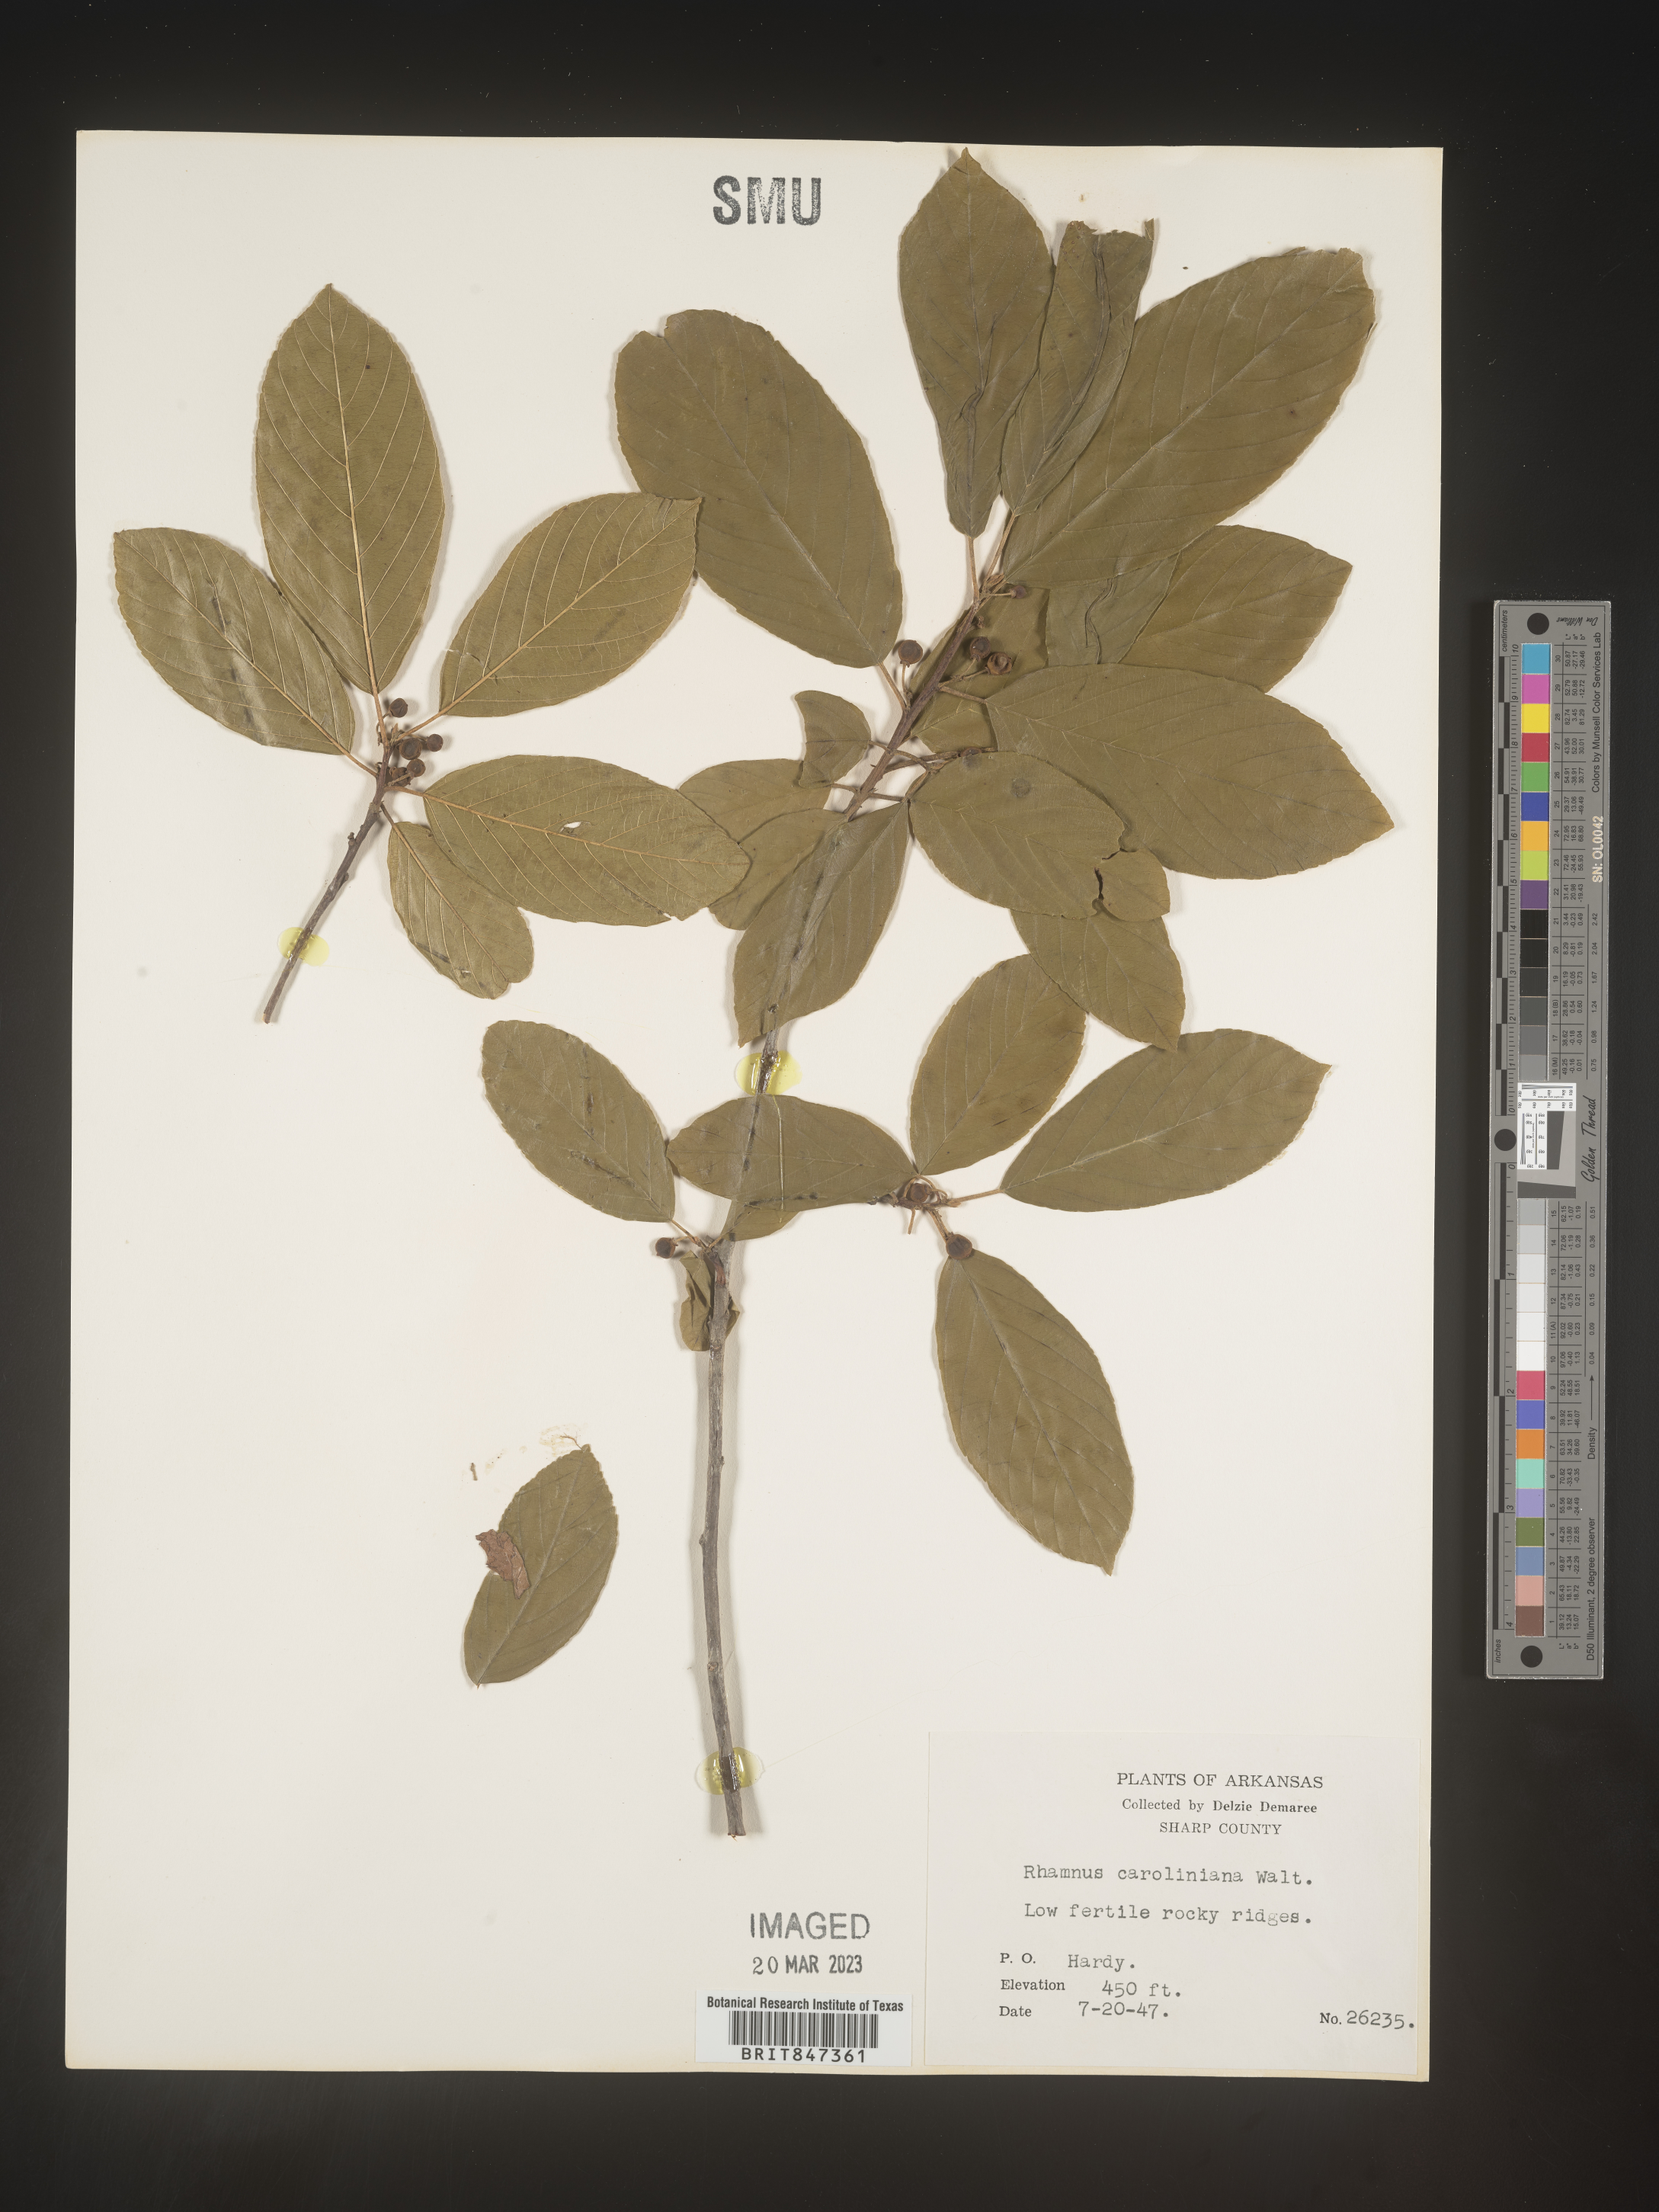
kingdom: Plantae
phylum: Tracheophyta
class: Magnoliopsida
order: Rosales
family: Rhamnaceae
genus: Frangula
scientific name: Frangula caroliniana
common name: Carolina buckthorn
